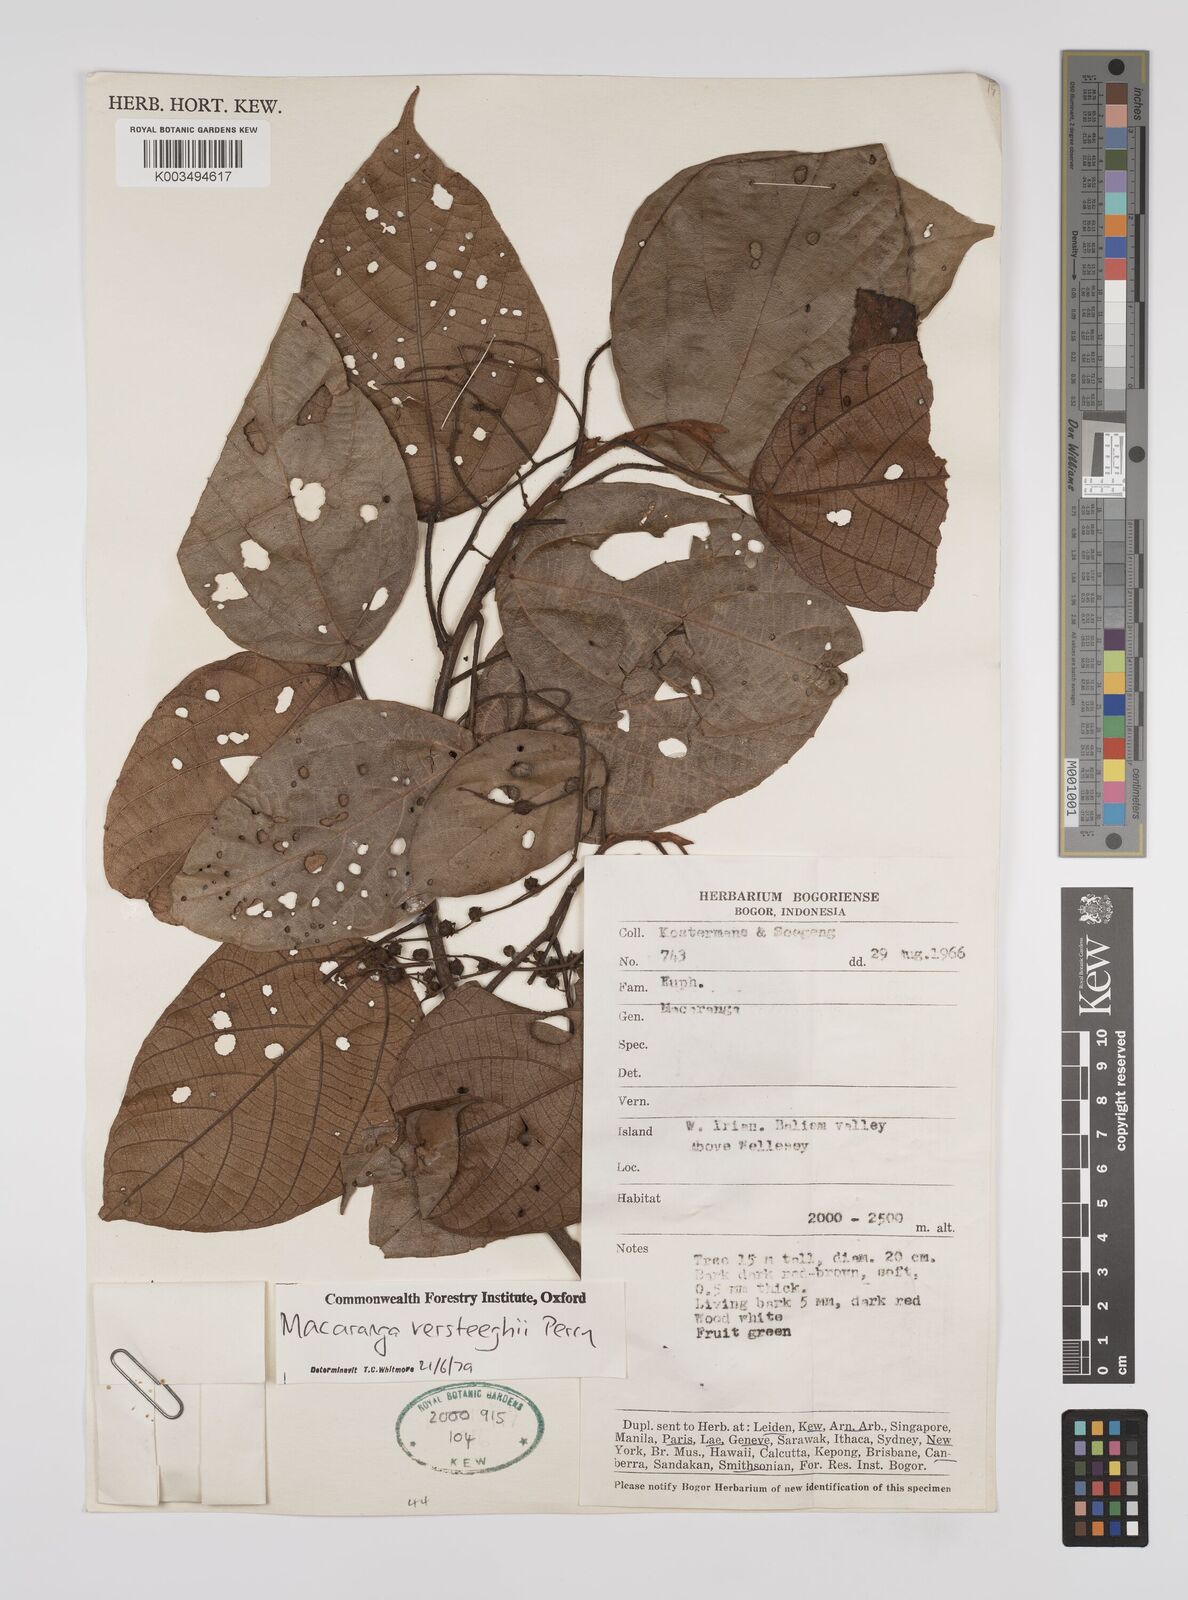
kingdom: Plantae
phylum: Tracheophyta
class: Magnoliopsida
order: Malpighiales
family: Euphorbiaceae
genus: Macaranga
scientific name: Macaranga versteeghii
